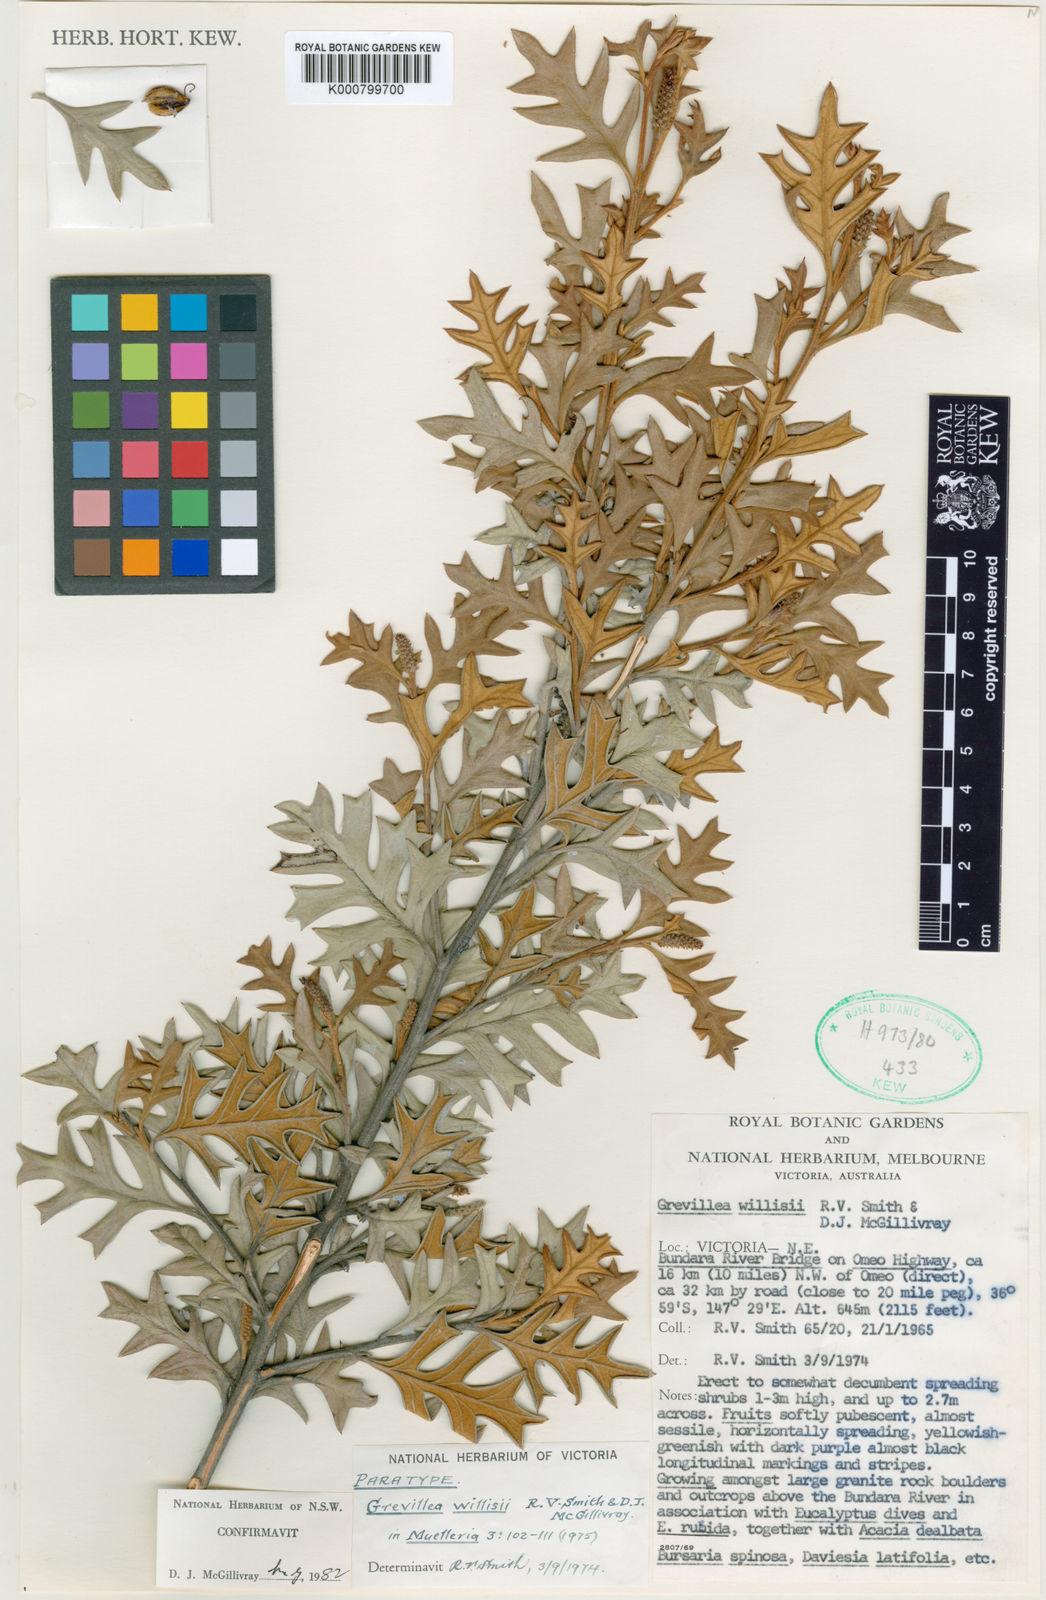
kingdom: Plantae
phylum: Tracheophyta
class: Magnoliopsida
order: Proteales
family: Proteaceae
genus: Grevillea
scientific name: Grevillea willisii
